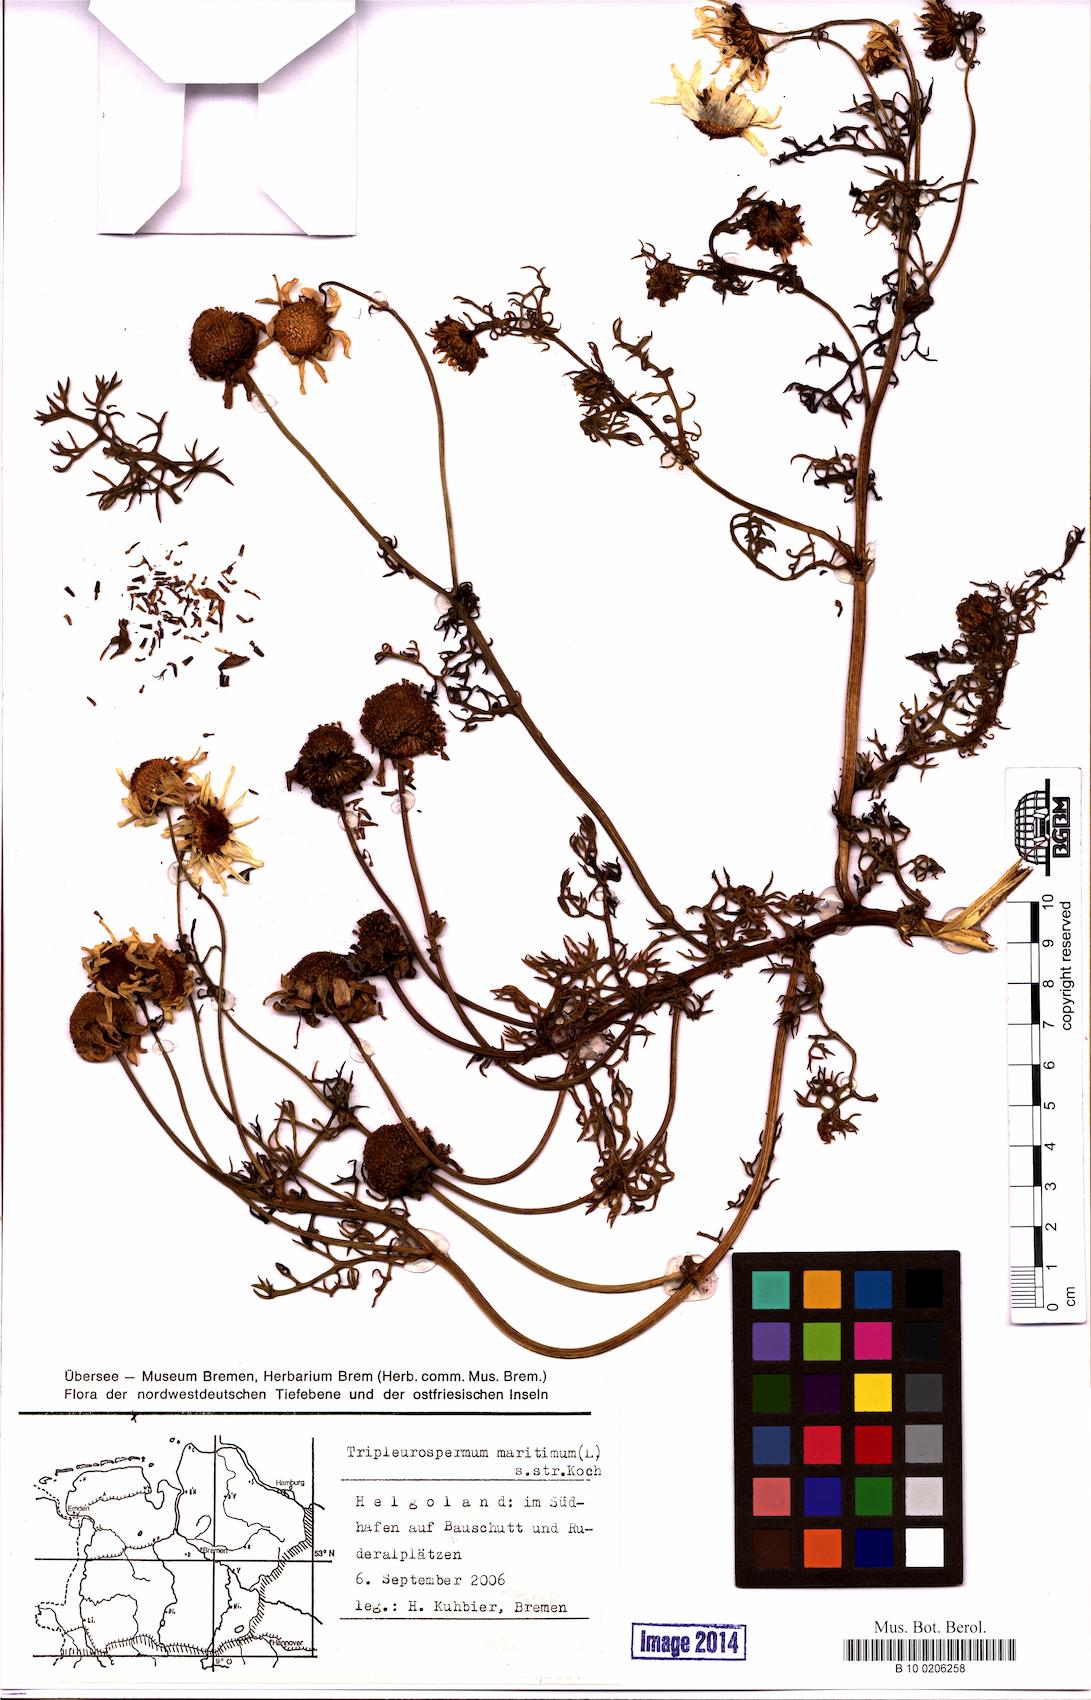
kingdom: Plantae
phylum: Tracheophyta
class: Magnoliopsida
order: Asterales
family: Asteraceae
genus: Tripleurospermum
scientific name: Tripleurospermum maritimum
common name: Sea mayweed
